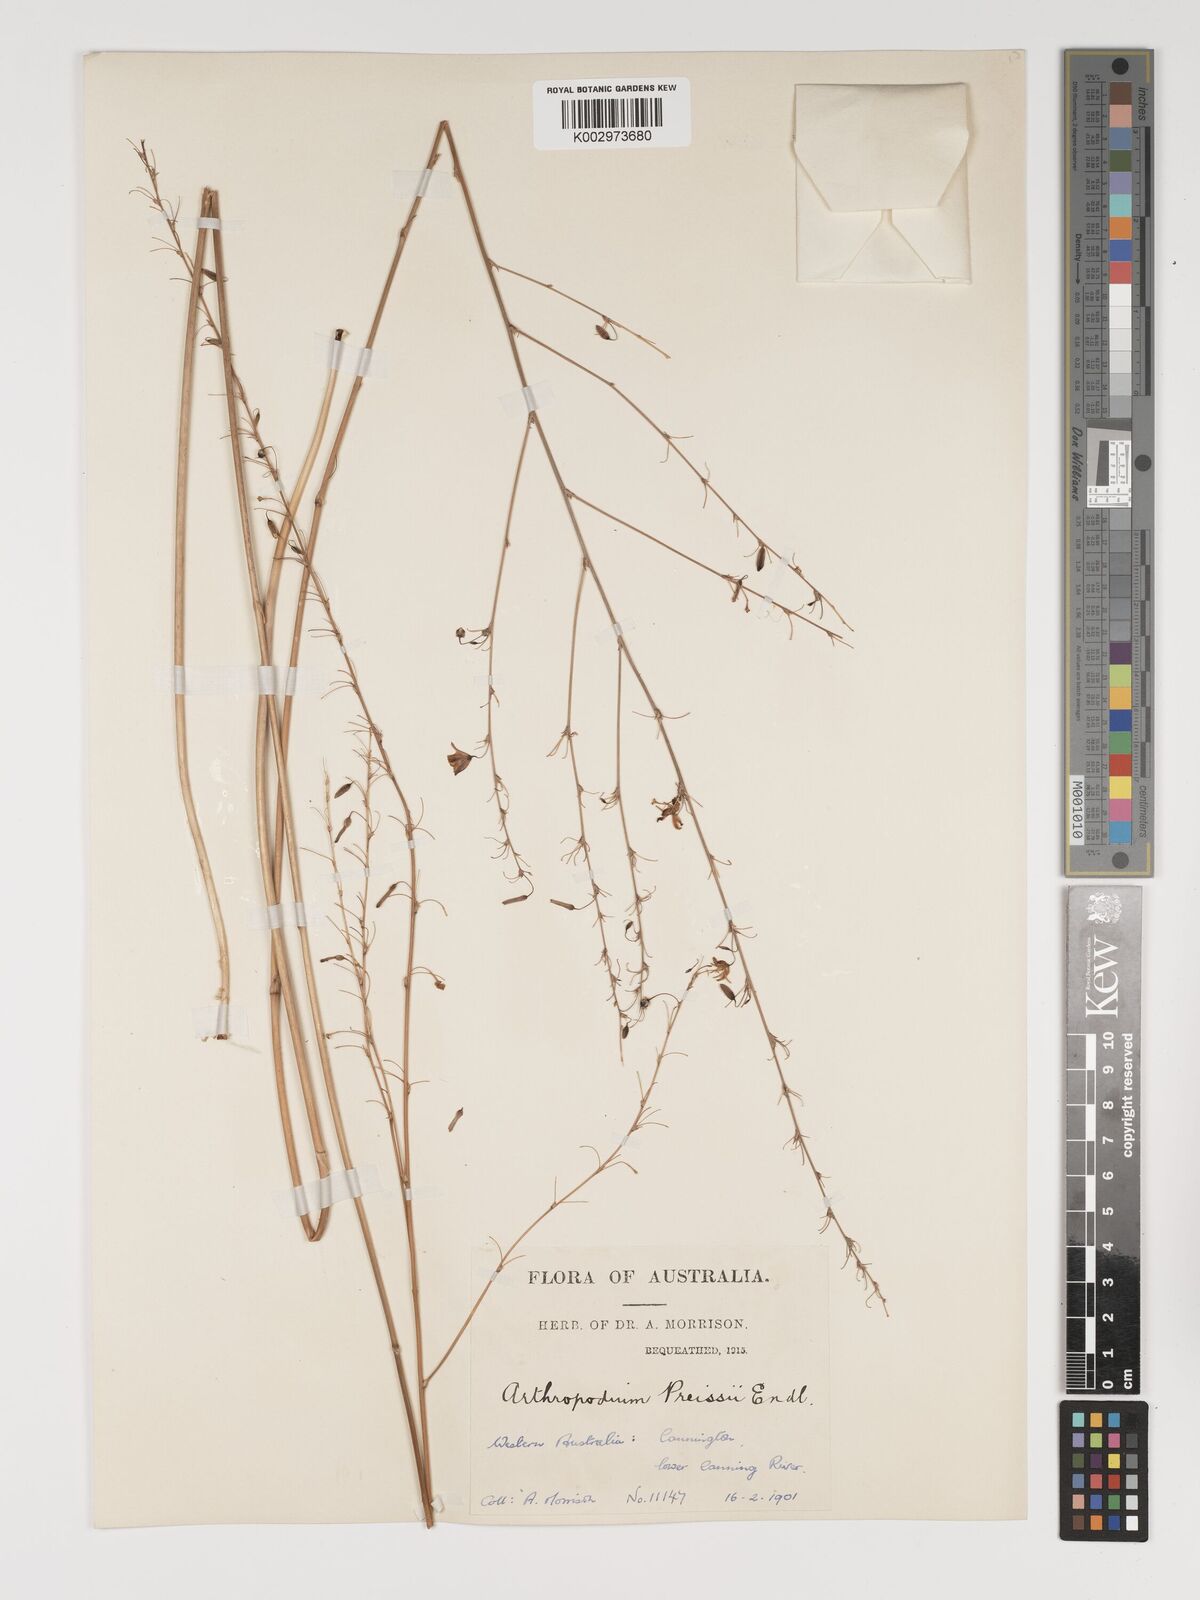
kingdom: Plantae
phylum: Tracheophyta
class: Liliopsida
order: Asparagales
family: Asparagaceae
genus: Dichopogon
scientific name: Dichopogon capillipes
